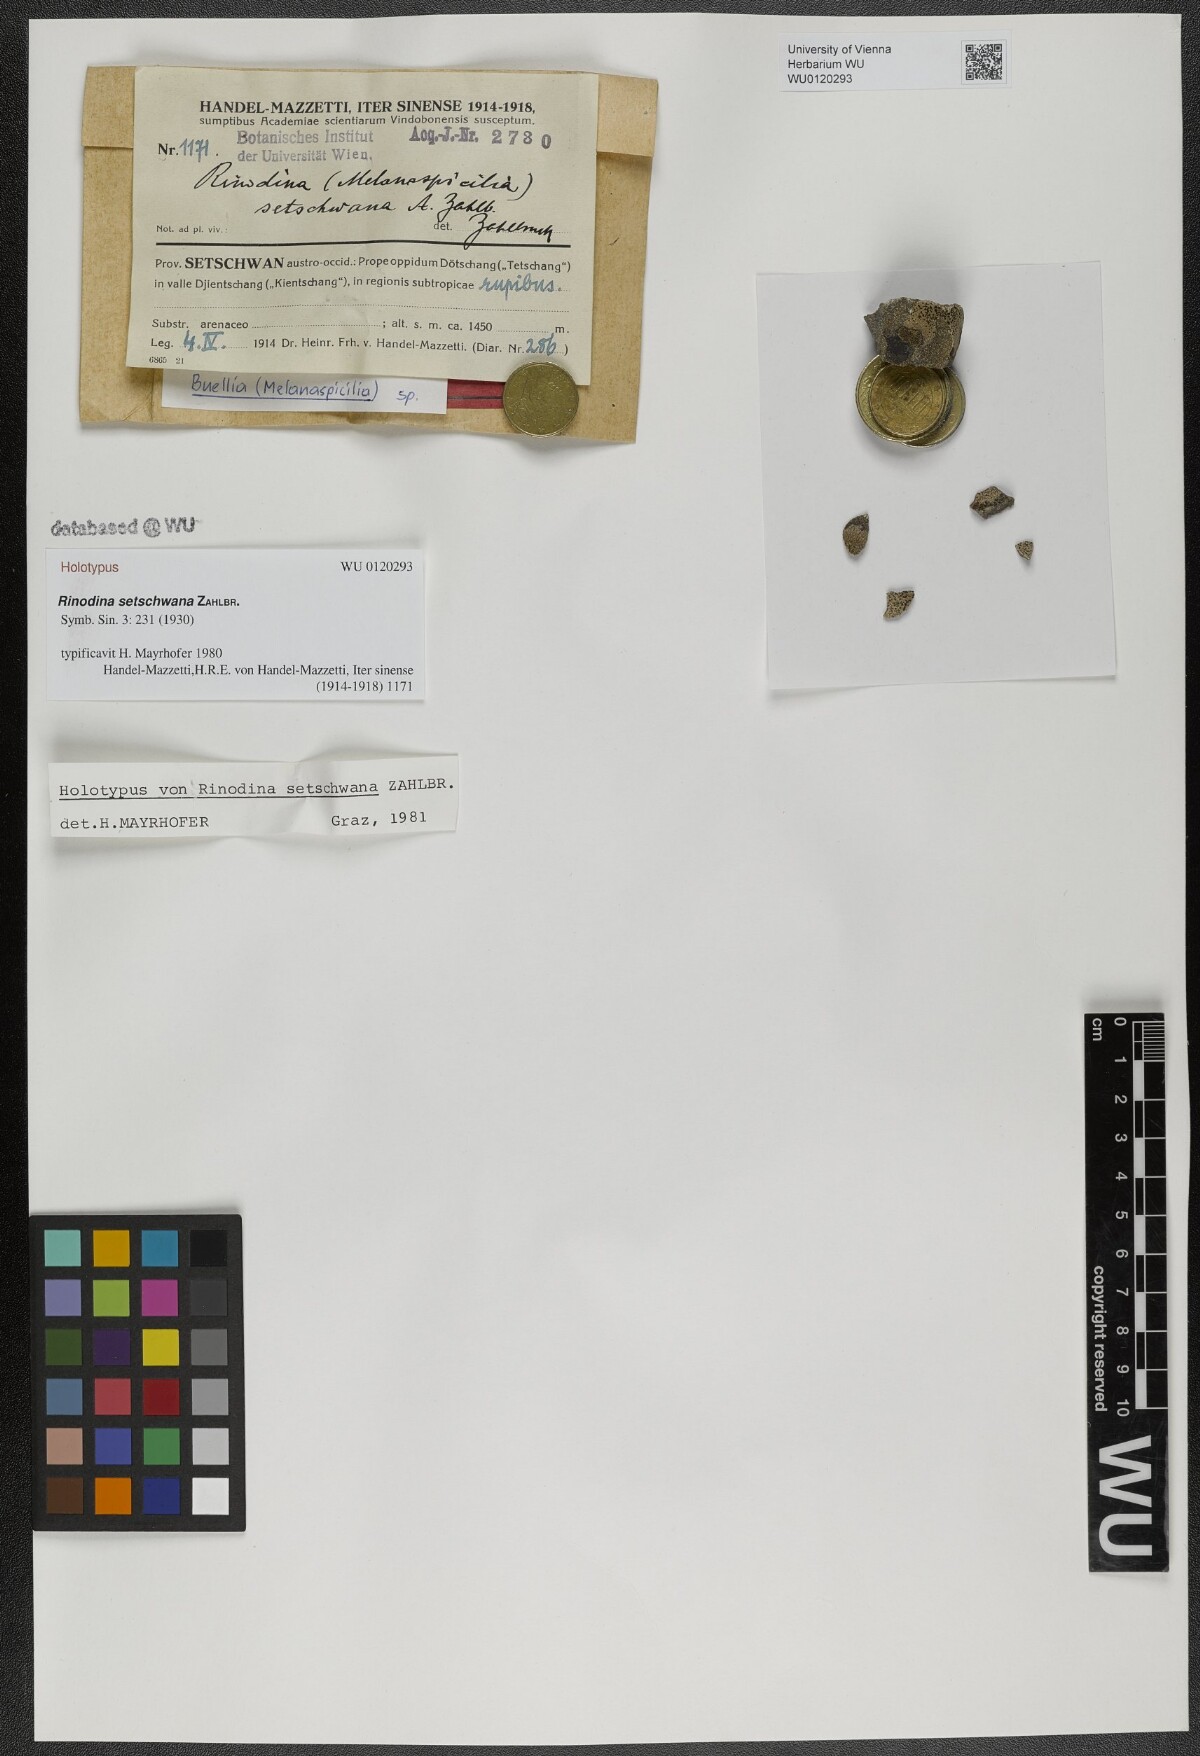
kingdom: Fungi
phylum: Ascomycota
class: Lecanoromycetes
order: Caliciales
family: Physciaceae
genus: Rinodina
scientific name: Rinodina
